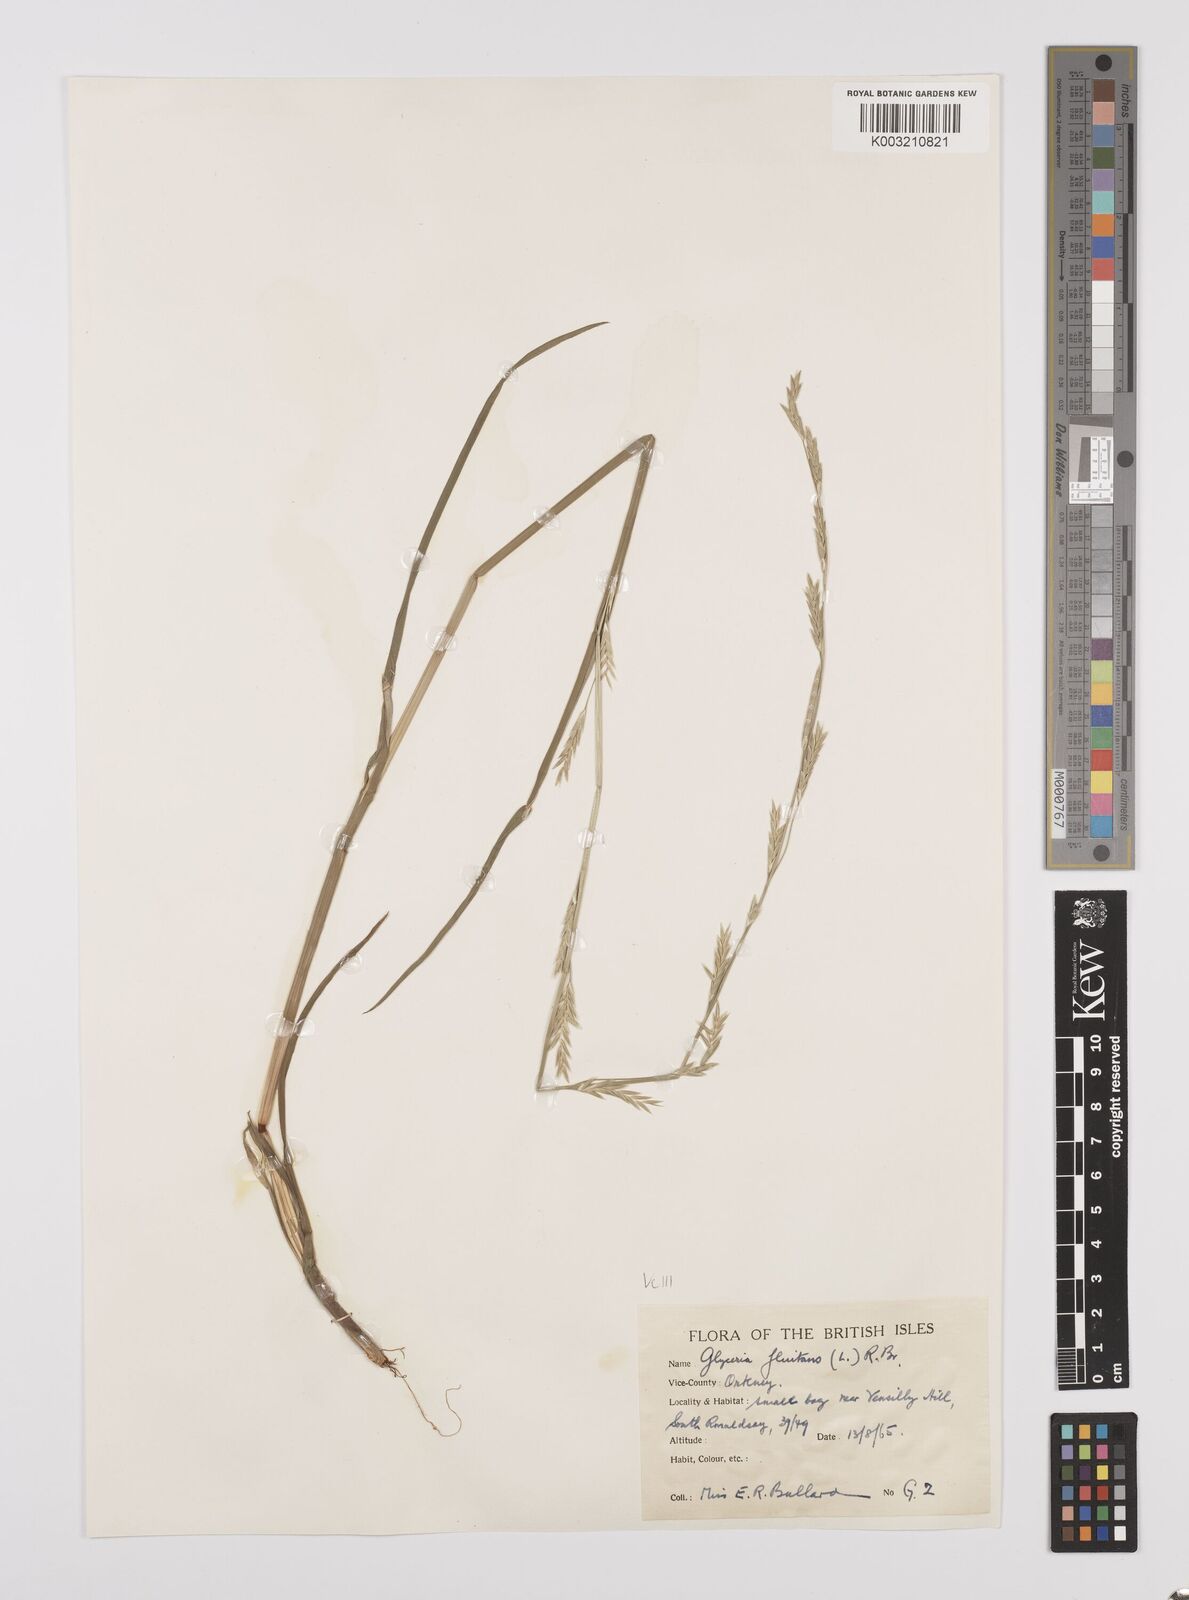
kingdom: Plantae
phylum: Tracheophyta
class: Liliopsida
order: Poales
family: Poaceae
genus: Glyceria
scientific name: Glyceria fluitans
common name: Floating sweet-grass
